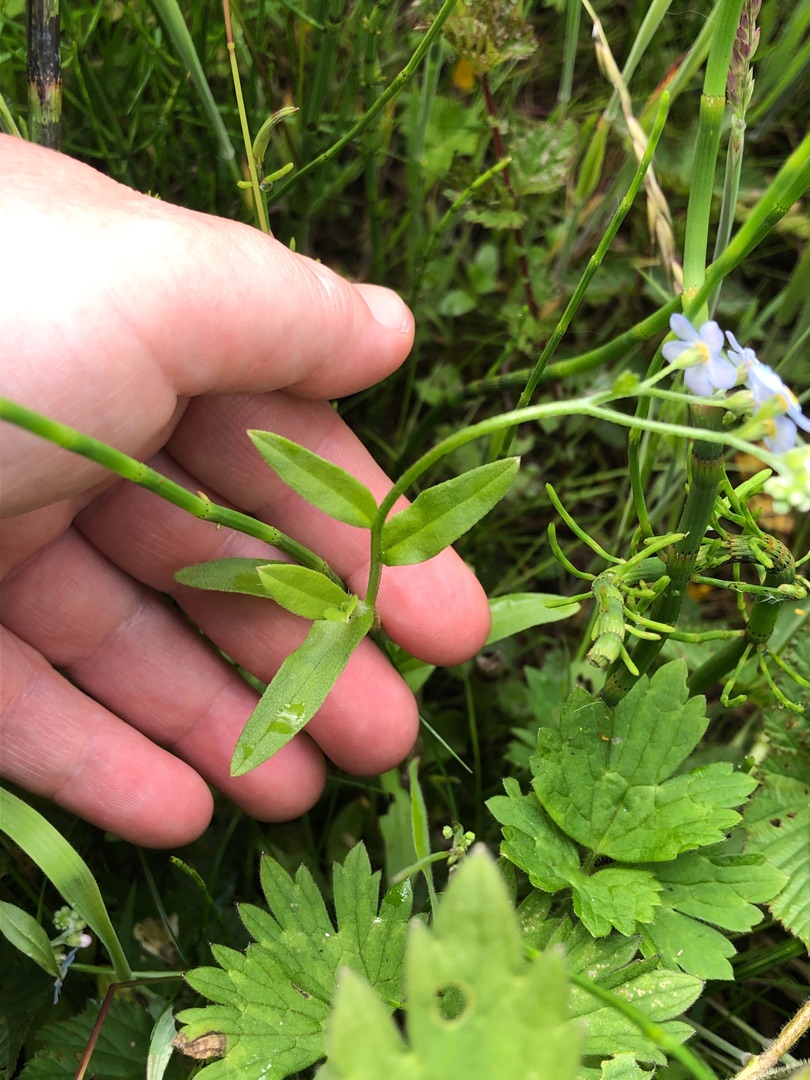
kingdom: Plantae
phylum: Tracheophyta
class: Magnoliopsida
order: Boraginales
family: Boraginaceae
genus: Myosotis
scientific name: Myosotis scorpioides
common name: Eng-forglemmigej
